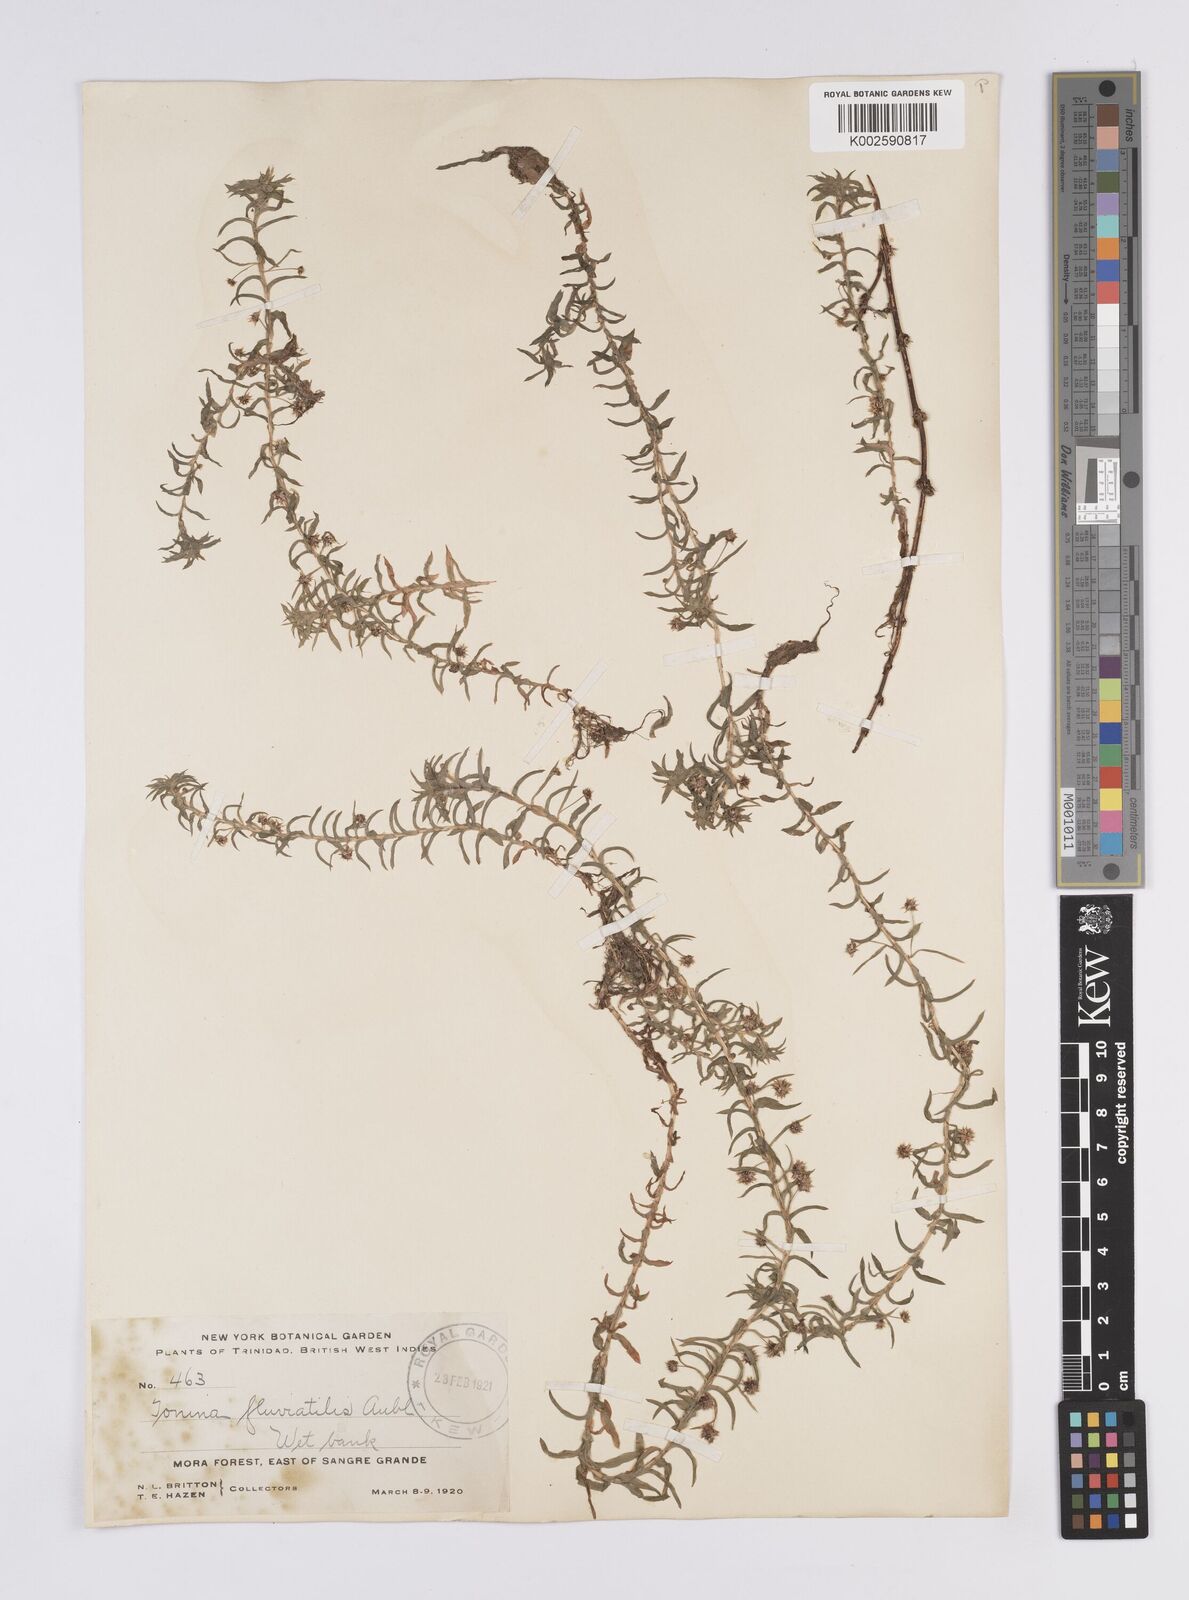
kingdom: Plantae
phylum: Tracheophyta
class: Liliopsida
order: Poales
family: Eriocaulaceae
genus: Paepalanthus
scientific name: Paepalanthus fluviatilis
